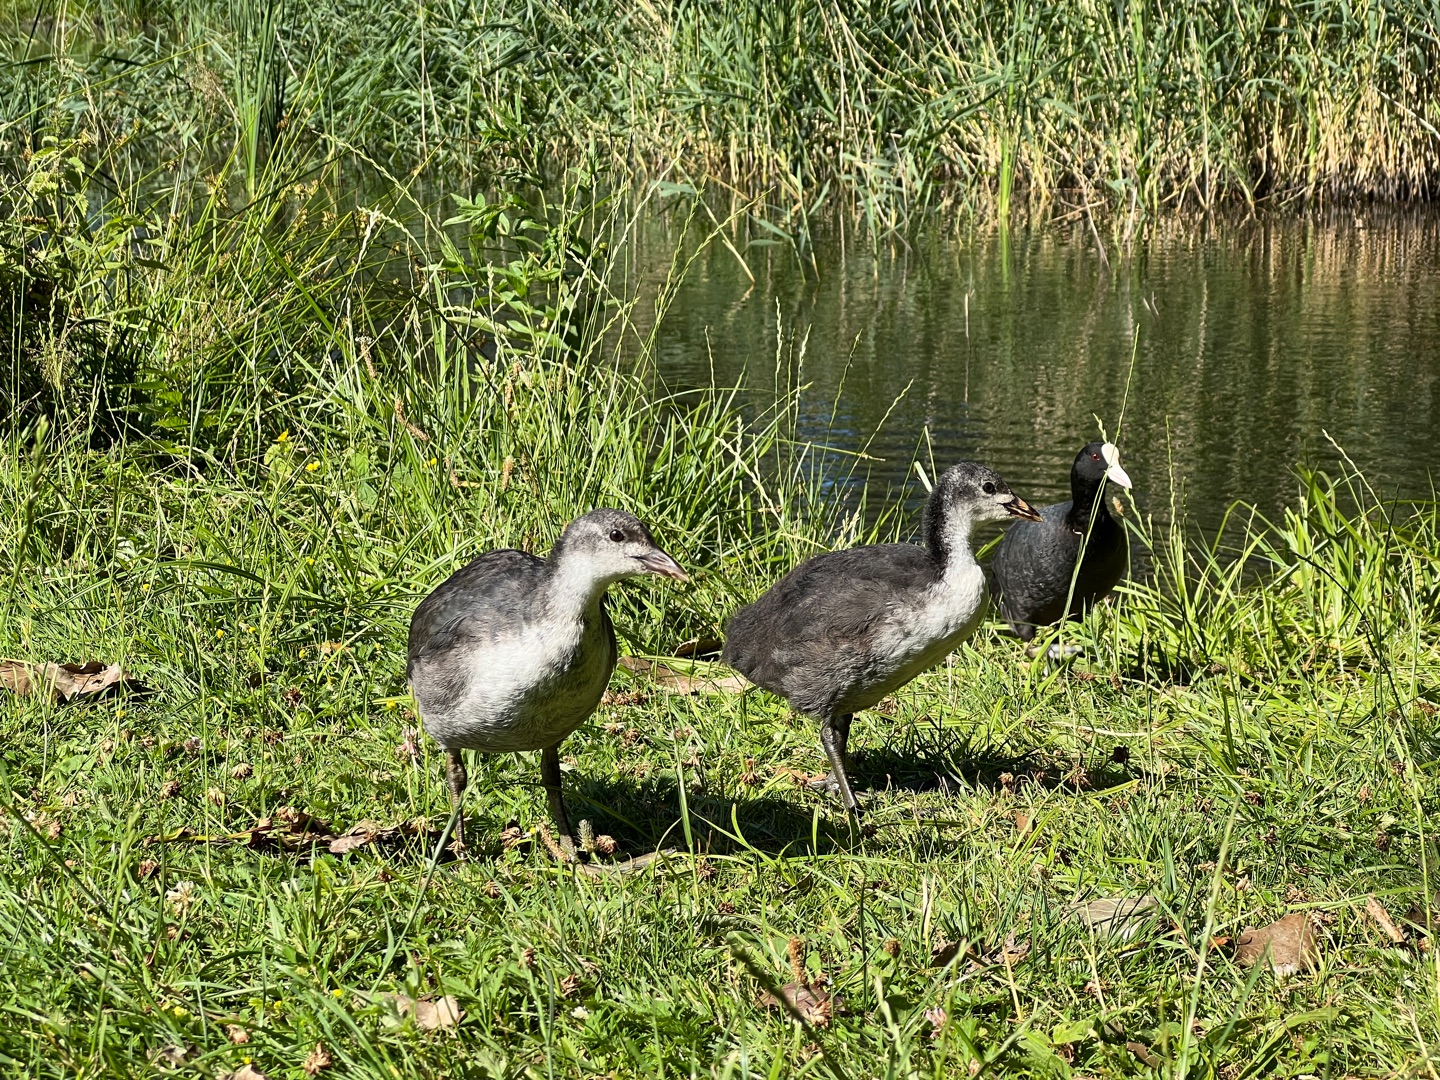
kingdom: Animalia
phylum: Chordata
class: Aves
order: Gruiformes
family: Rallidae
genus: Fulica
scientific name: Fulica atra
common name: Blishøne
